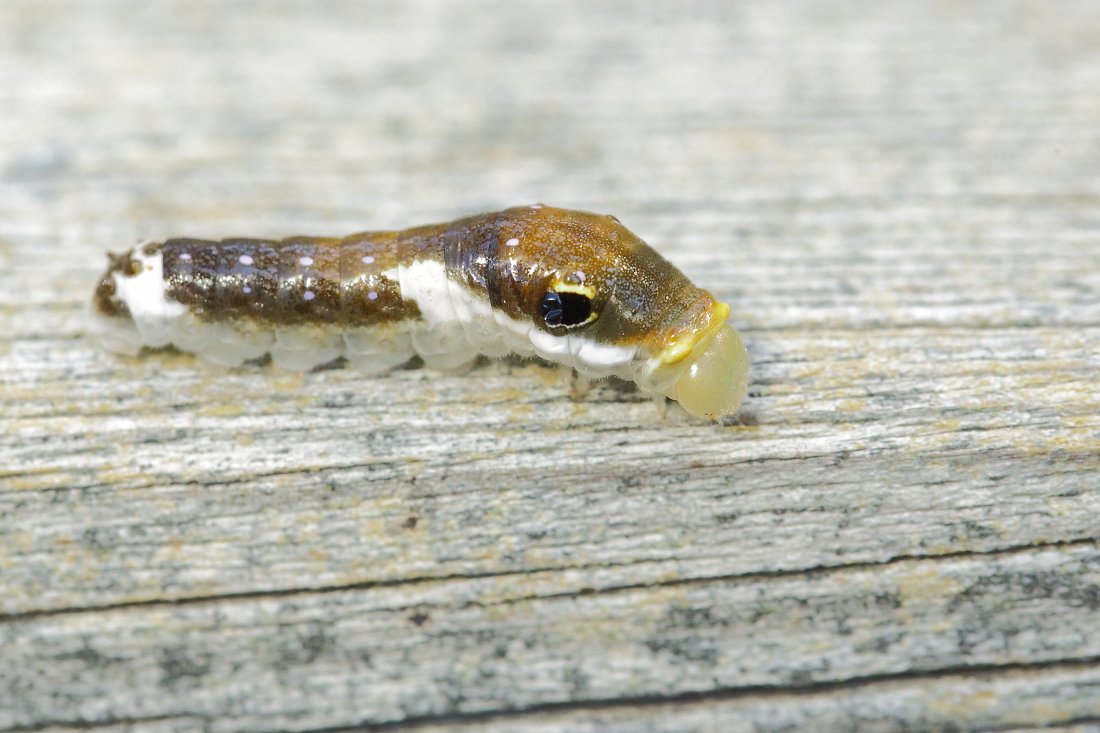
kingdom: Animalia
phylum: Arthropoda
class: Insecta
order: Lepidoptera
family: Papilionidae
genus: Pterourus
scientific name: Pterourus troilus
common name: Spicebush Swallowtail
